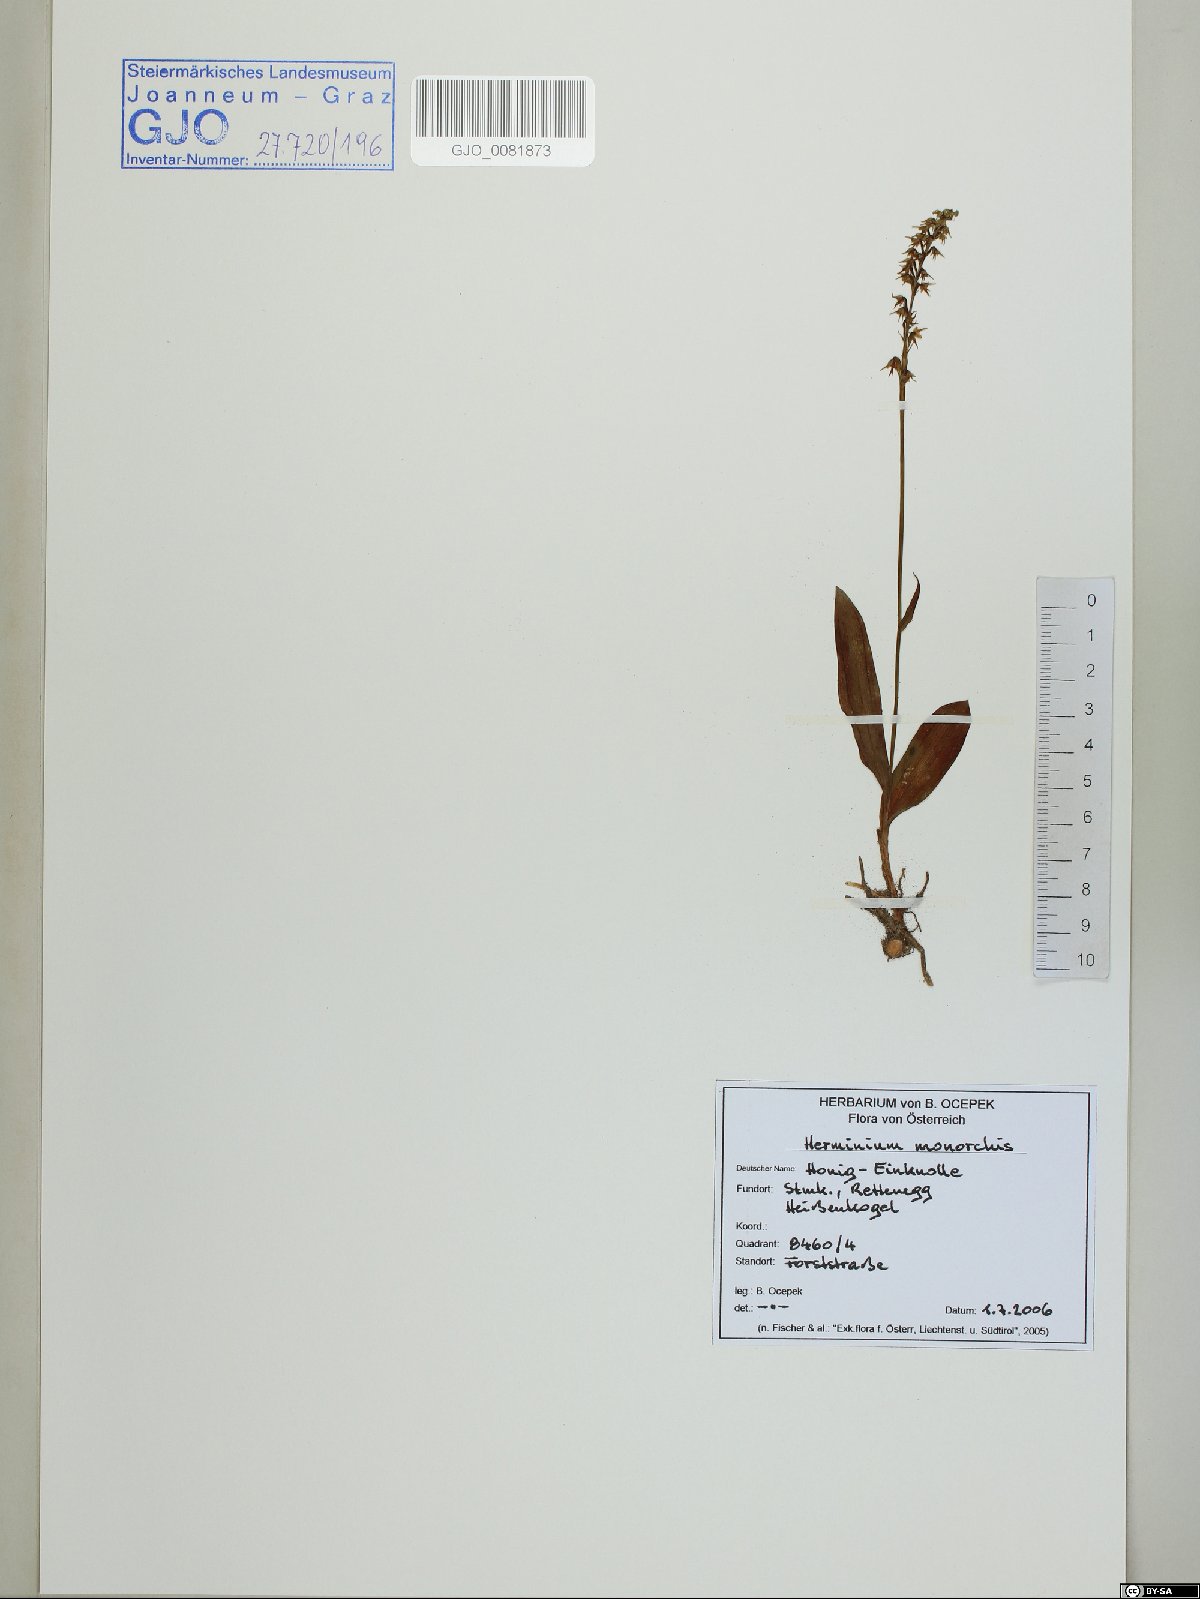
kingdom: Plantae
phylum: Tracheophyta
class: Liliopsida
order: Asparagales
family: Orchidaceae
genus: Herminium
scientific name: Herminium monorchis
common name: Musk orchid
